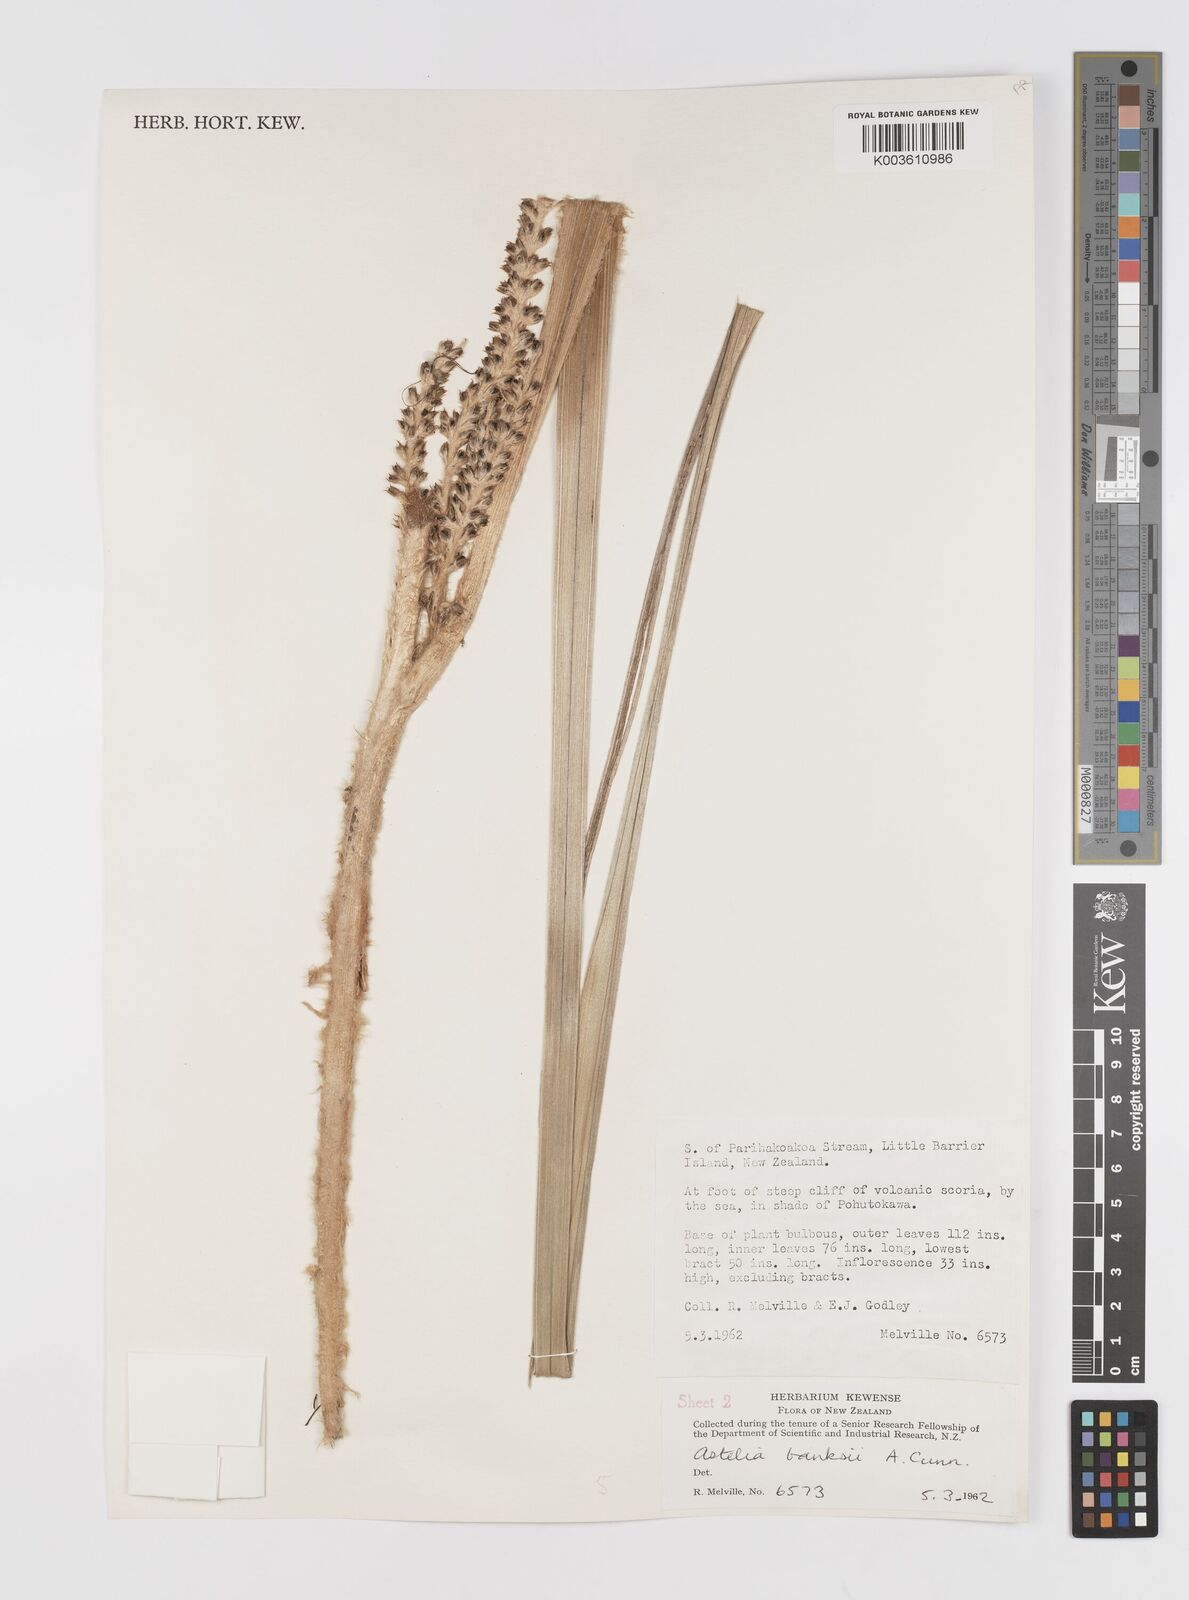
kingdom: Plantae
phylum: Tracheophyta
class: Liliopsida
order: Asparagales
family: Asteliaceae
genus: Astelia
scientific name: Astelia banksii
